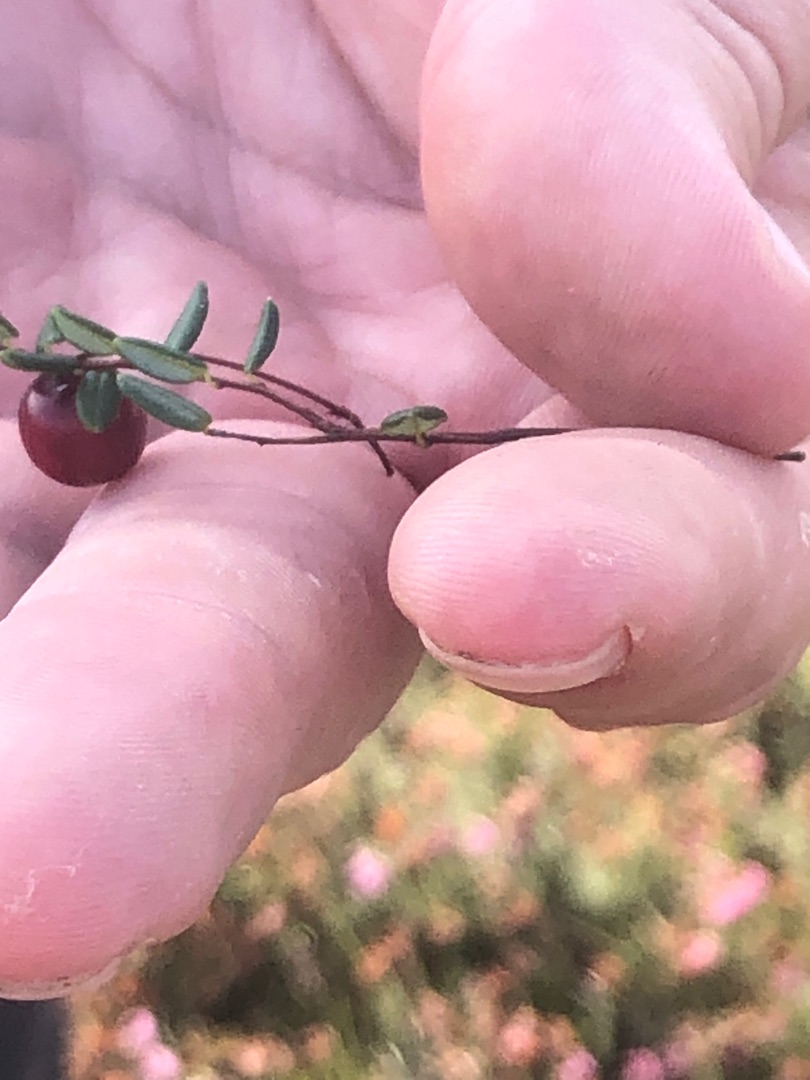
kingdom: Plantae
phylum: Tracheophyta
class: Magnoliopsida
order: Ericales
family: Ericaceae
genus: Vaccinium
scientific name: Vaccinium oxycoccos
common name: Tranebær
